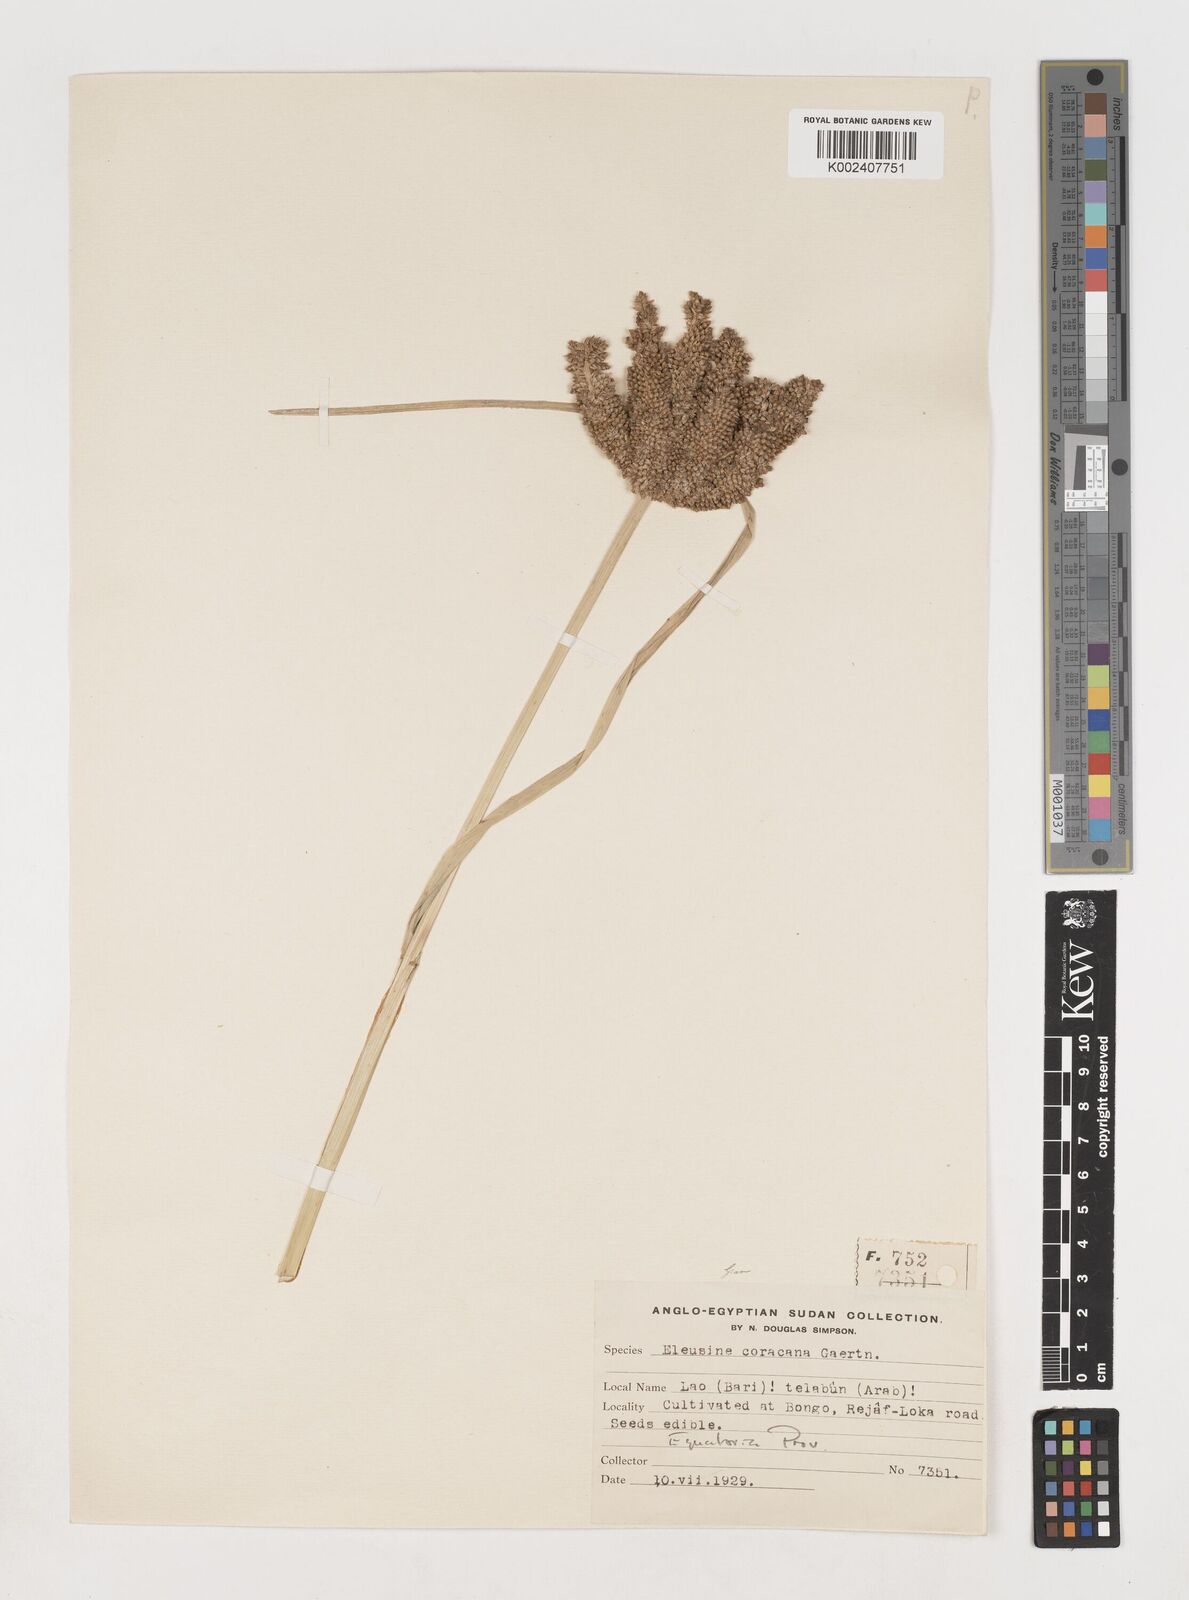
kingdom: Plantae
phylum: Tracheophyta
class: Liliopsida
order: Poales
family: Poaceae
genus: Eleusine
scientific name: Eleusine coracana
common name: Finger millet
